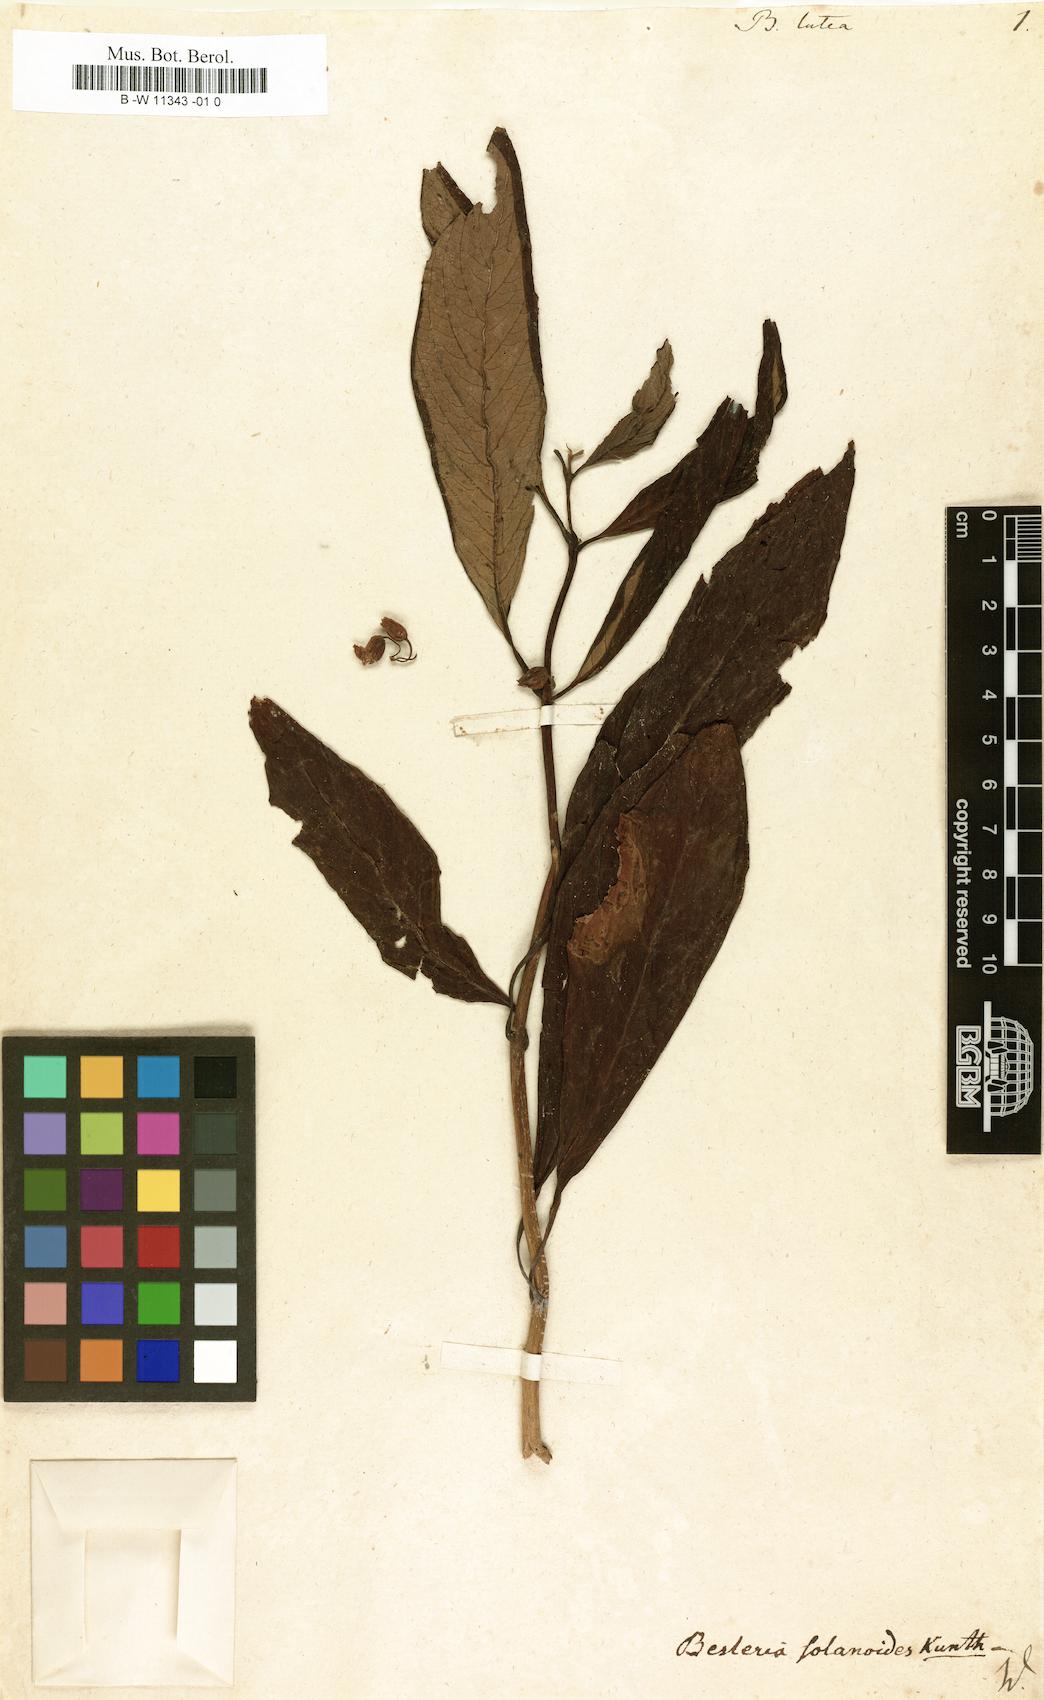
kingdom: Plantae
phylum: Tracheophyta
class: Magnoliopsida
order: Lamiales
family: Gesneriaceae
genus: Besleria
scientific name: Besleria lutea
